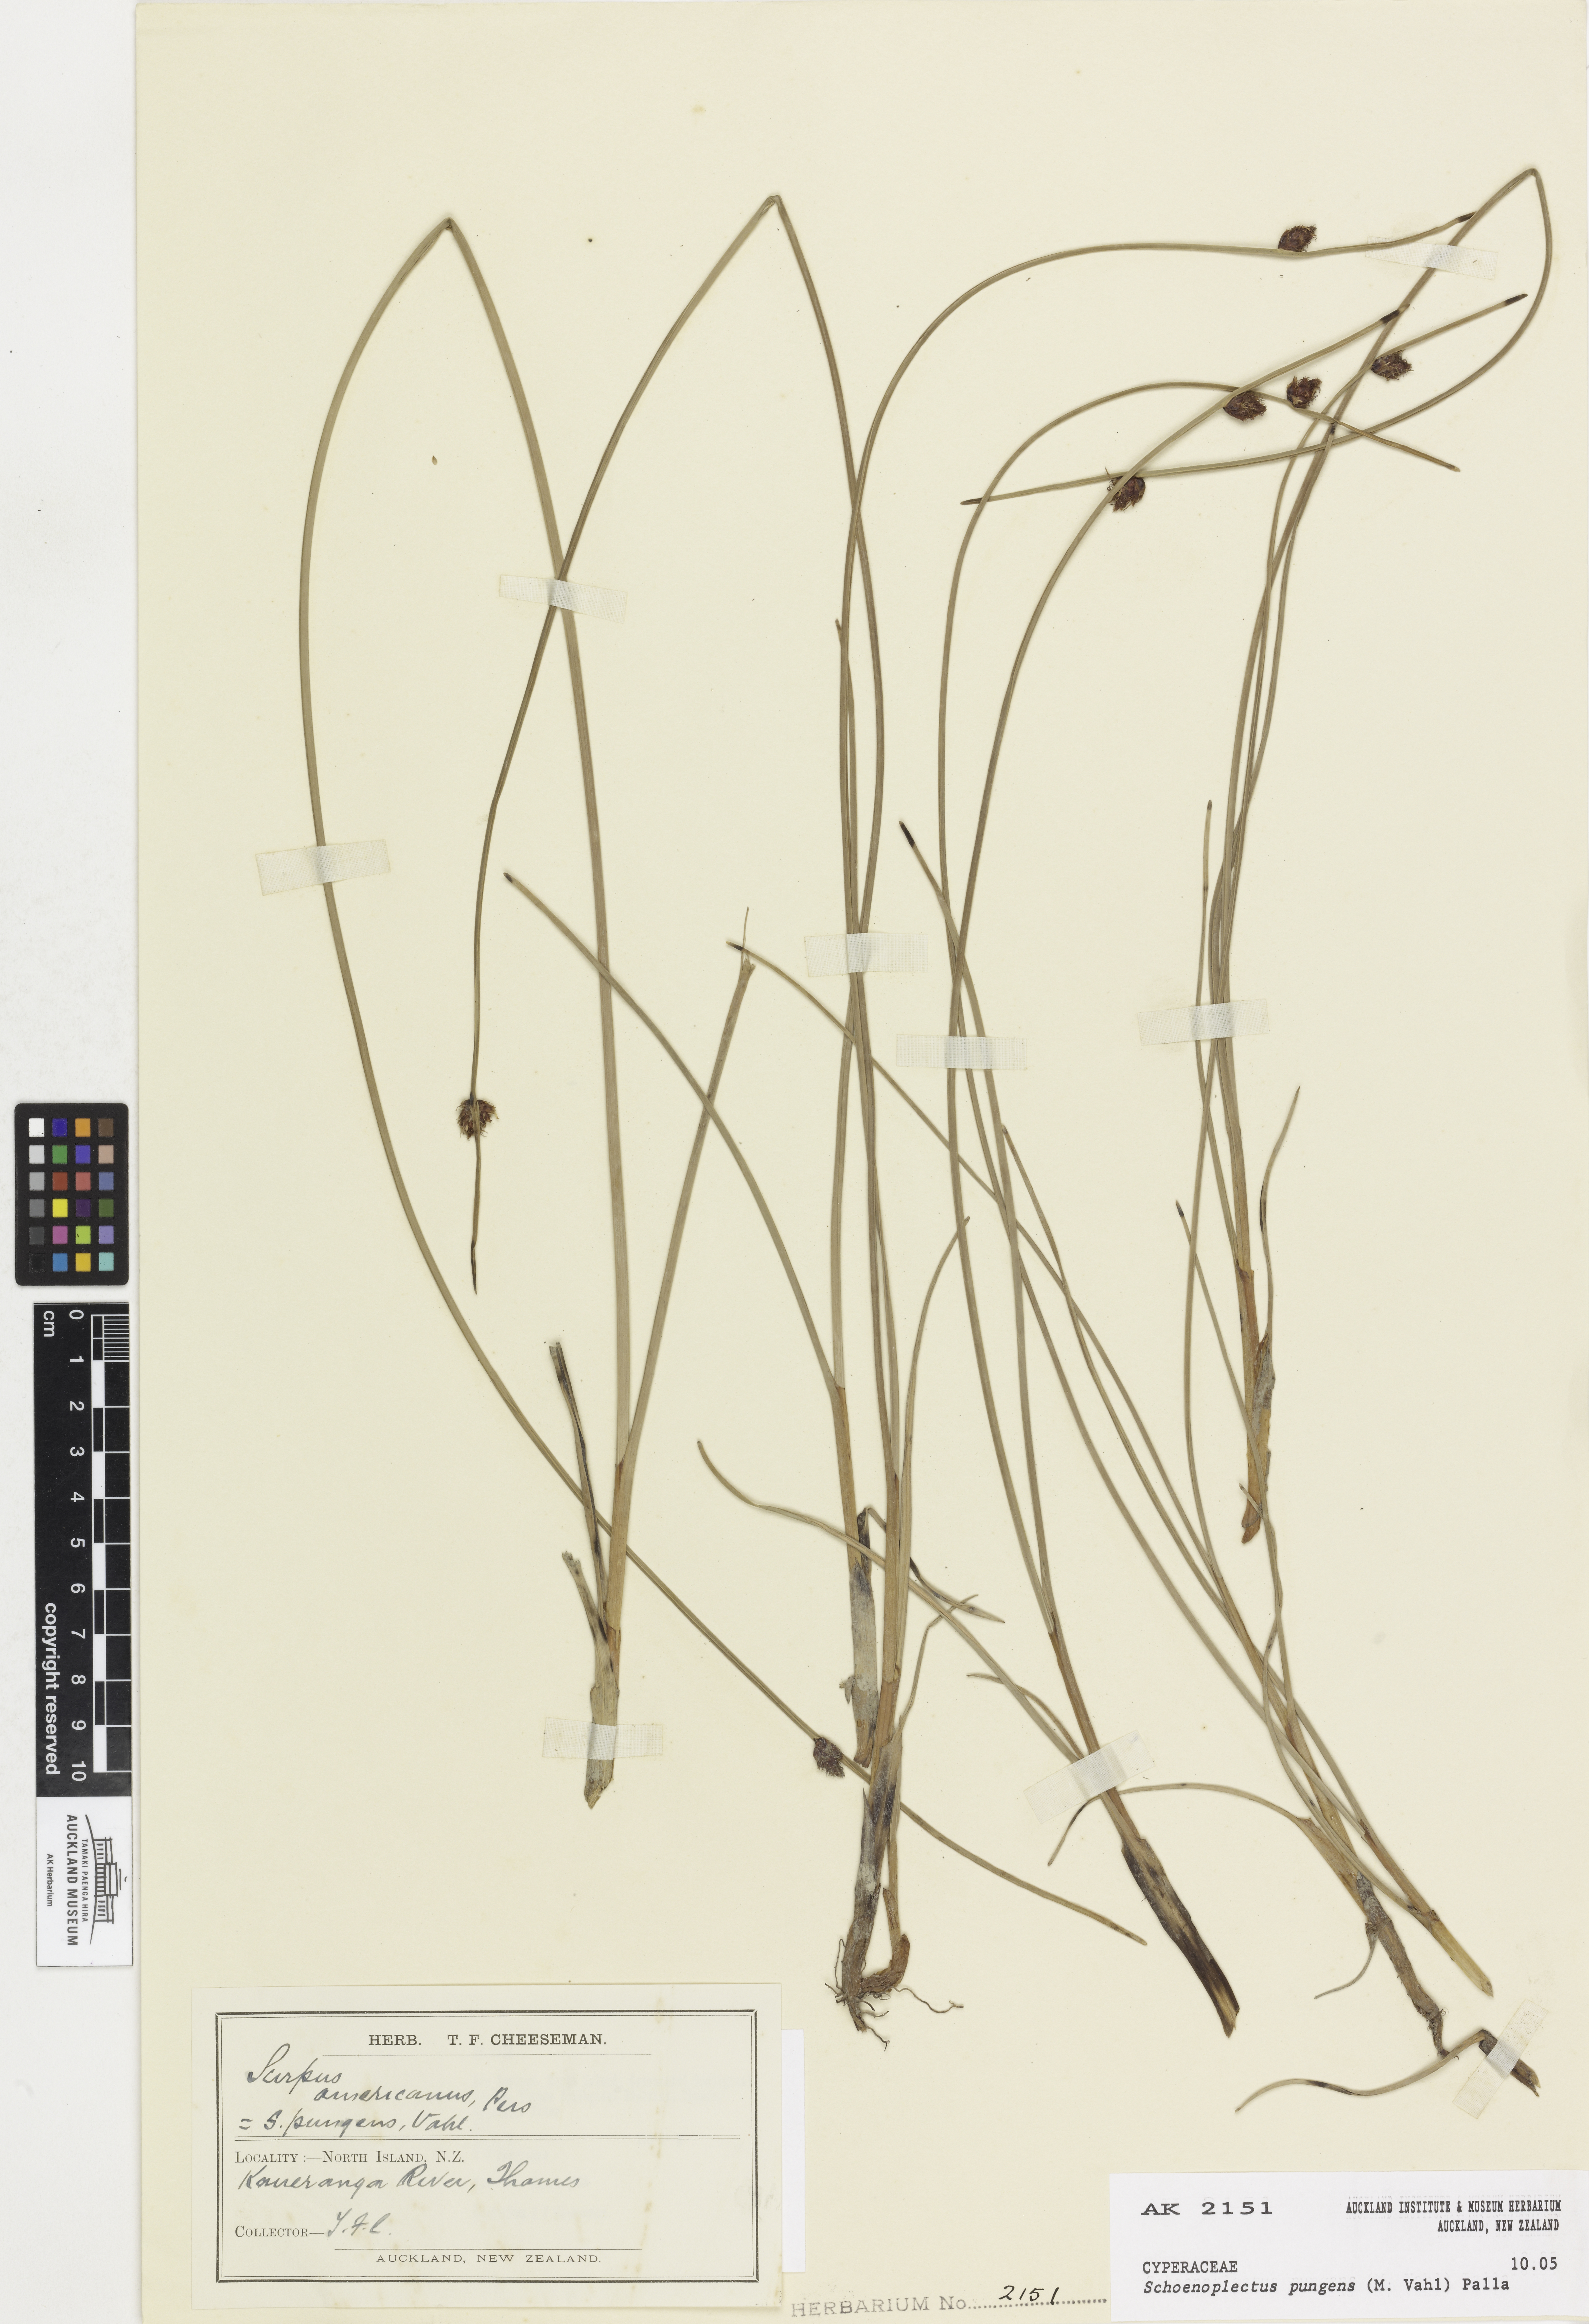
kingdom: Plantae
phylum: Tracheophyta
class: Liliopsida
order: Poales
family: Cyperaceae
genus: Schoenoplectus
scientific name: Schoenoplectus pungens
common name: Sharp club-rush
